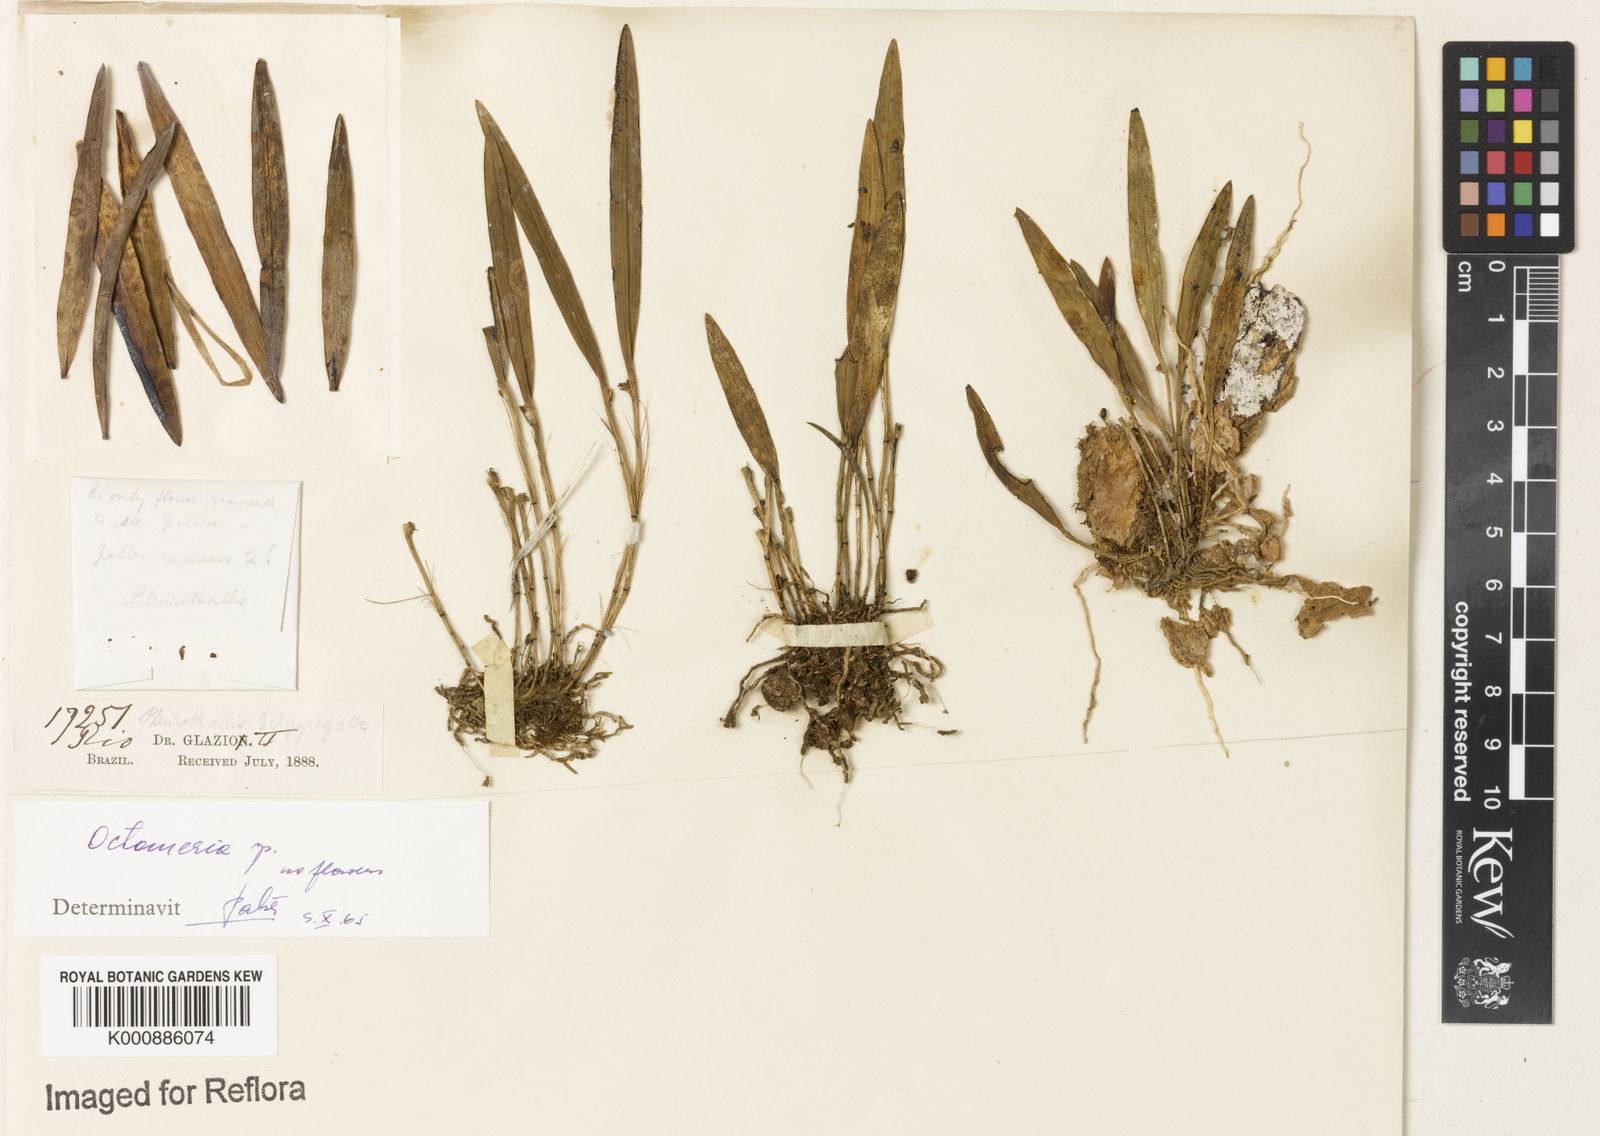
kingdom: Plantae
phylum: Tracheophyta
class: Liliopsida
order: Asparagales
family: Orchidaceae
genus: Octomeria
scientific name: Octomeria
